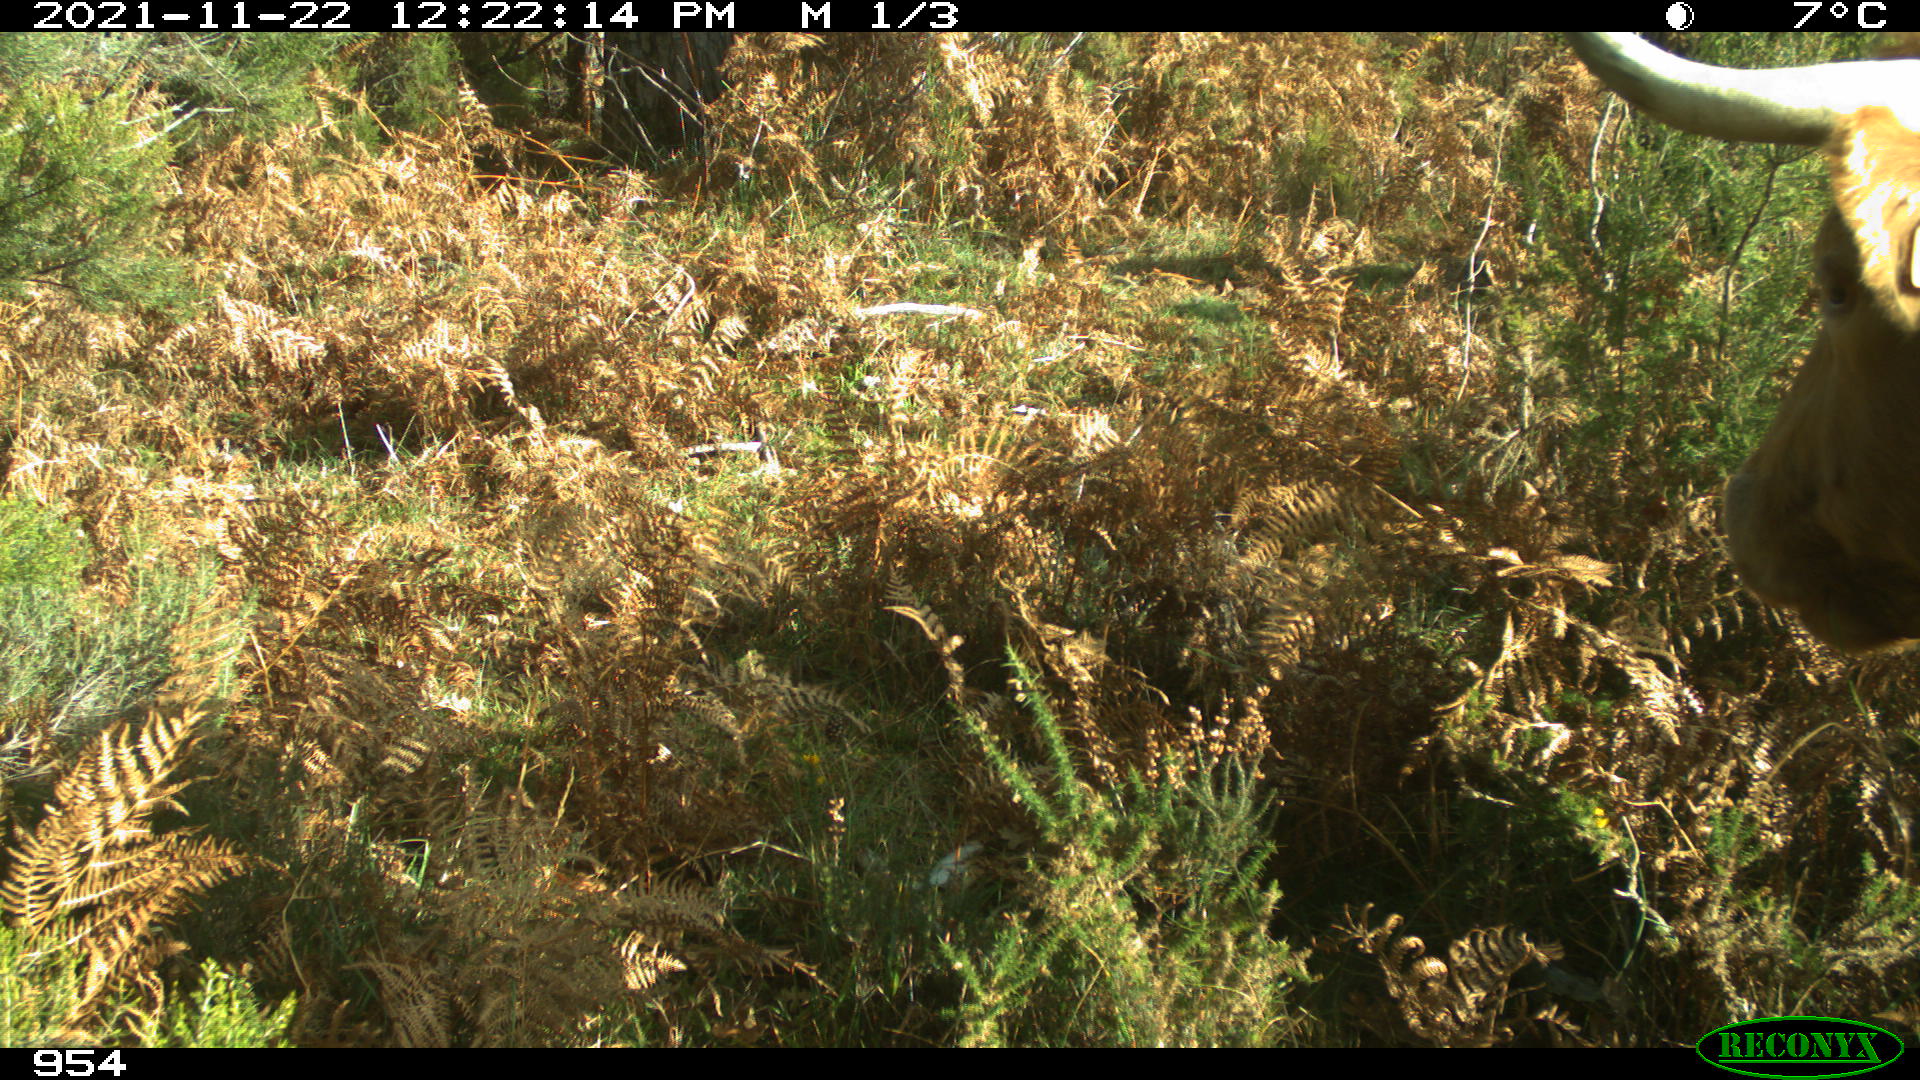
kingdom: Animalia
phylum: Chordata
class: Mammalia
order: Artiodactyla
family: Bovidae
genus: Bos
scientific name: Bos taurus
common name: Domesticated cattle
